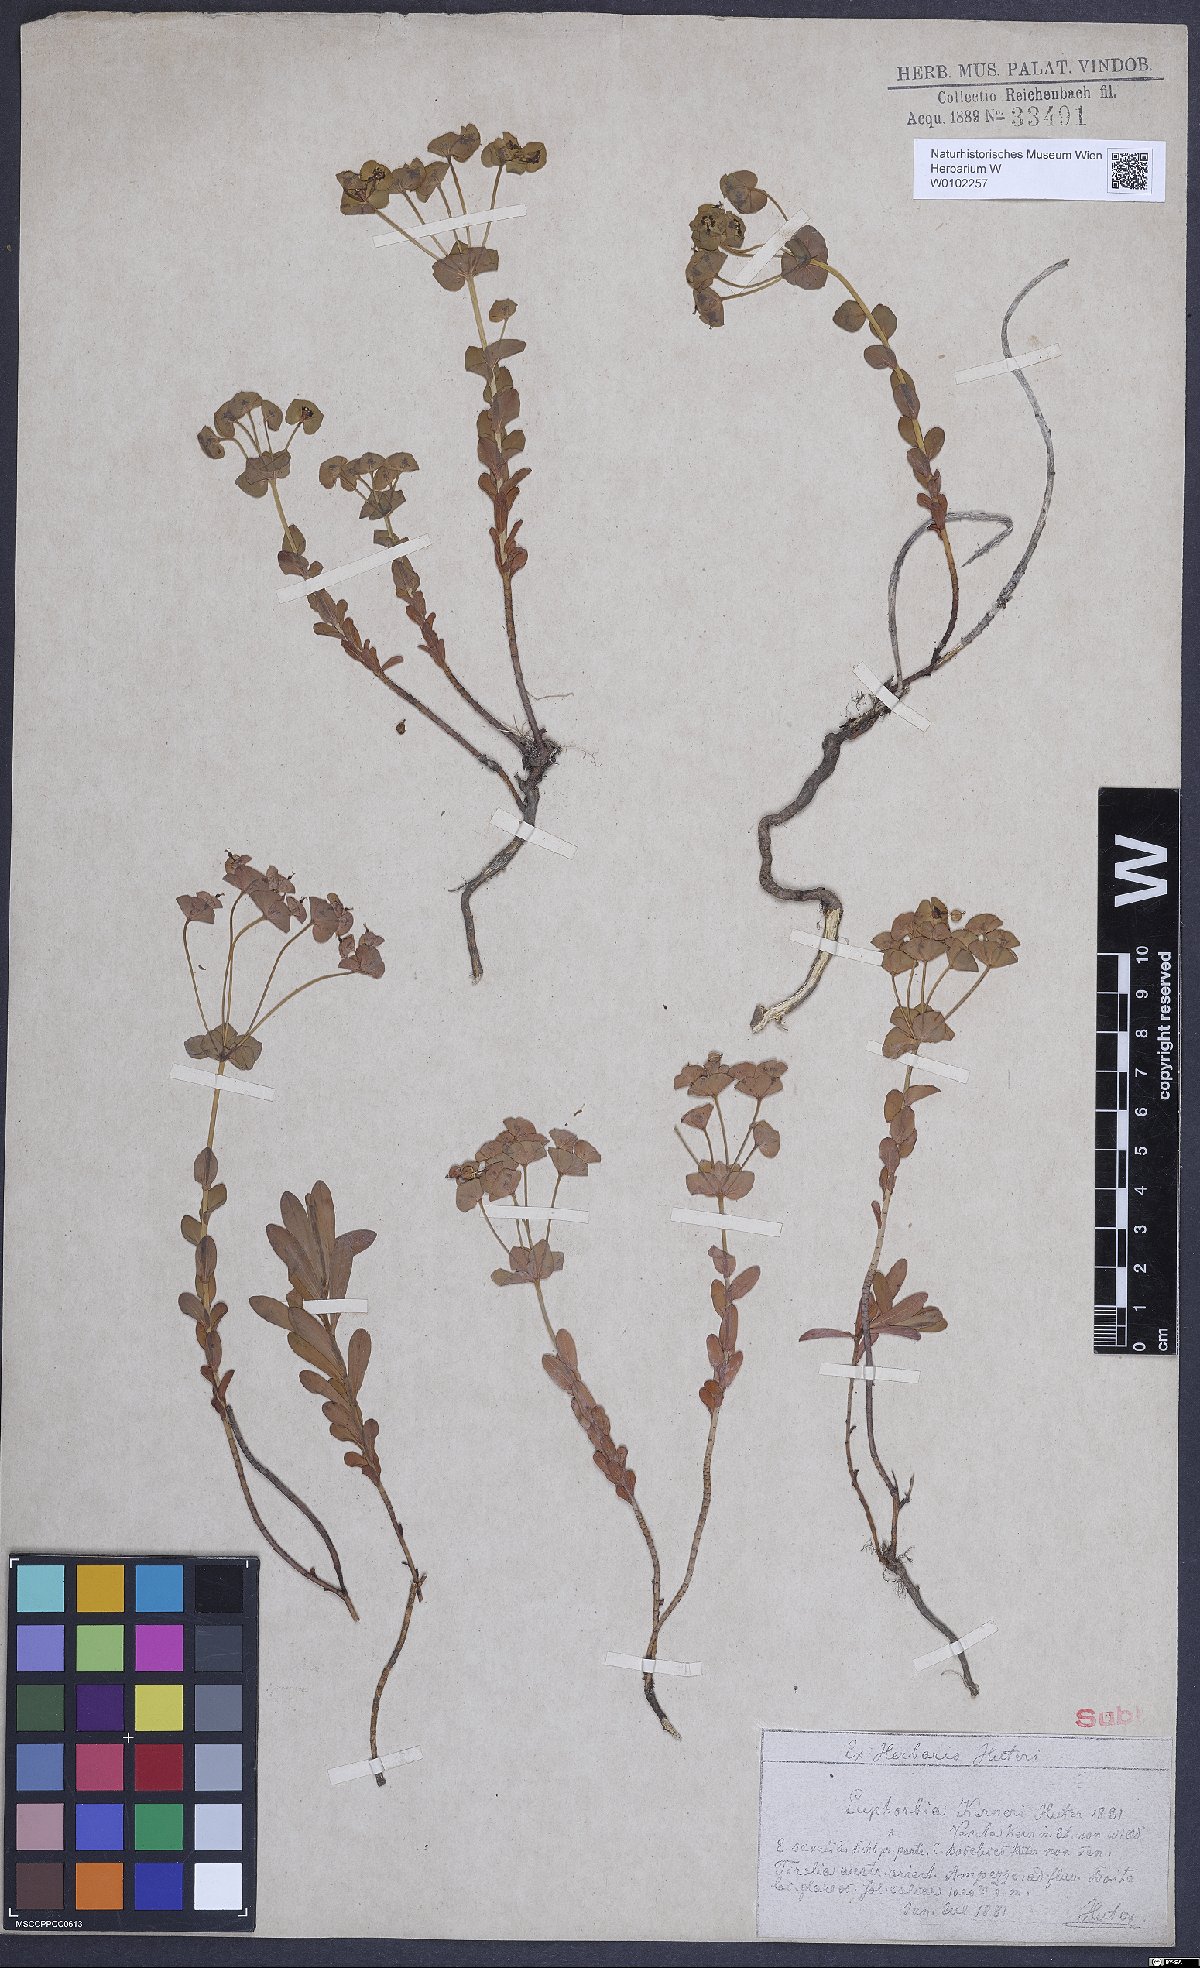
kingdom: Plantae
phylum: Tracheophyta
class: Magnoliopsida
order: Malpighiales
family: Euphorbiaceae
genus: Euphorbia
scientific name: Euphorbia kerneri
